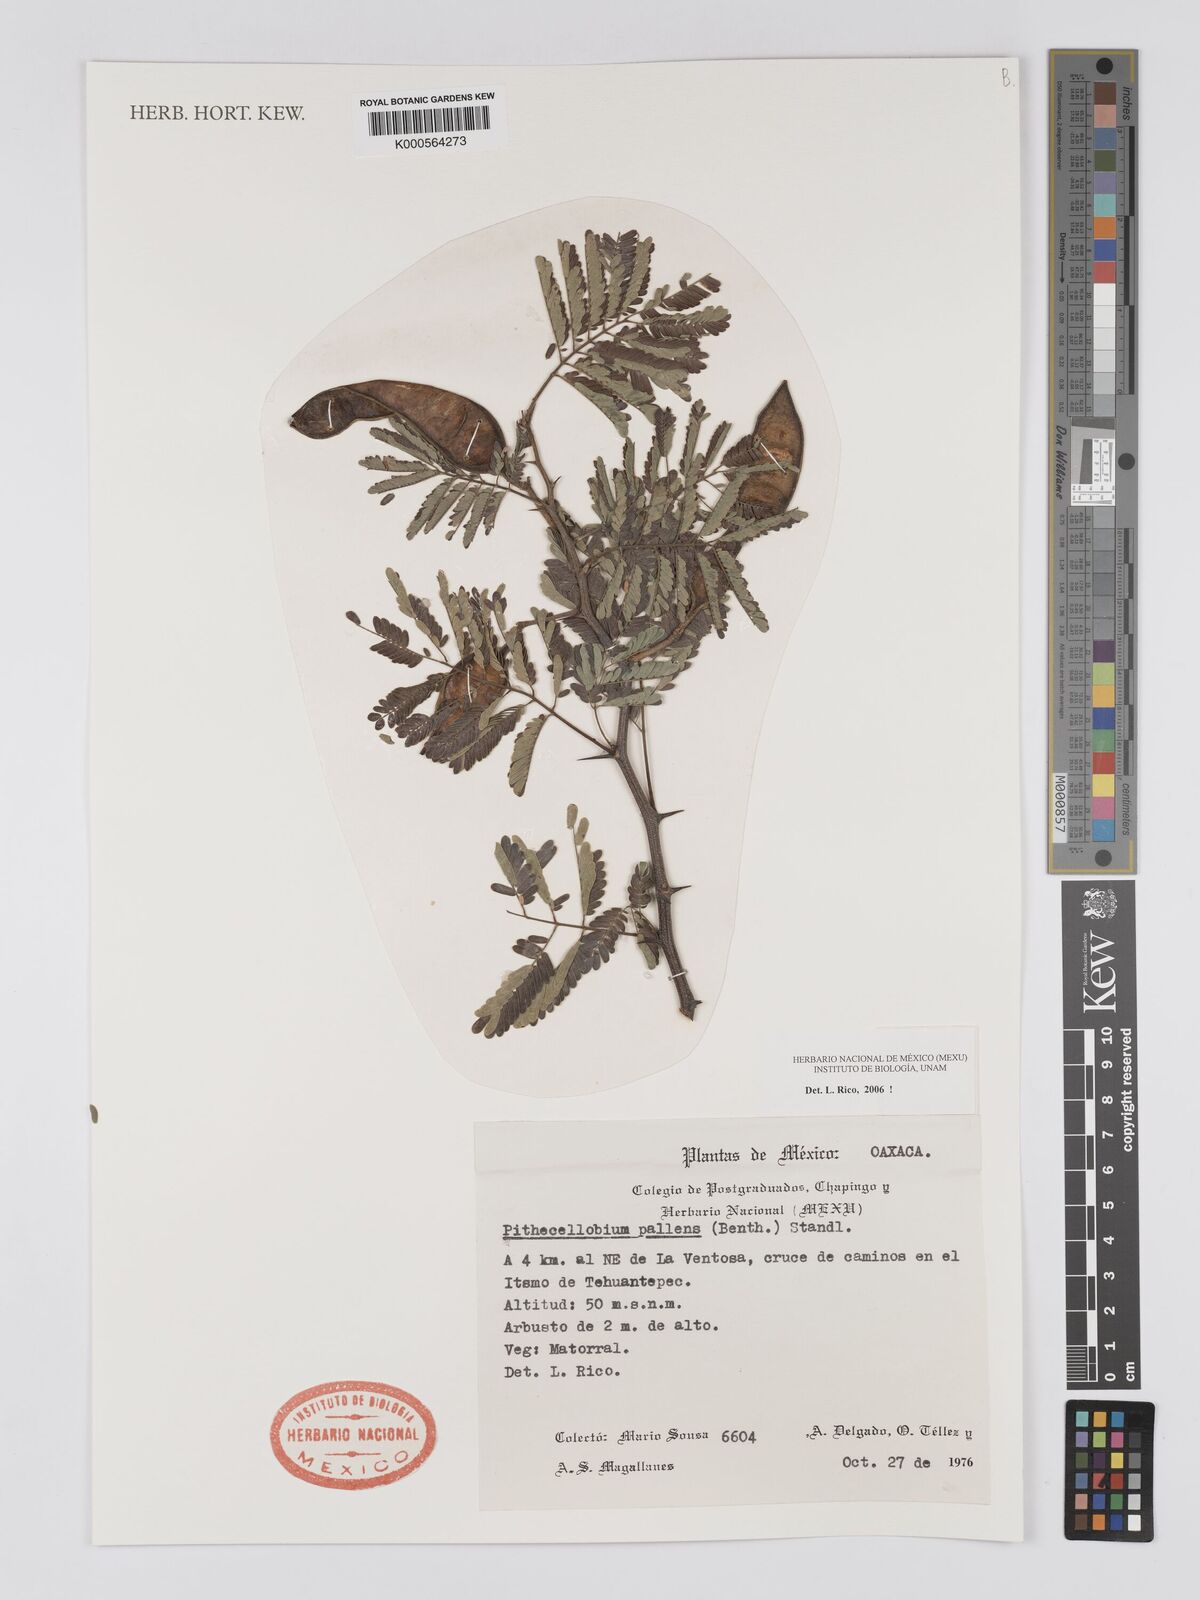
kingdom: Plantae
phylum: Tracheophyta
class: Magnoliopsida
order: Fabales
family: Fabaceae
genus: Havardia
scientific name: Havardia pallens
